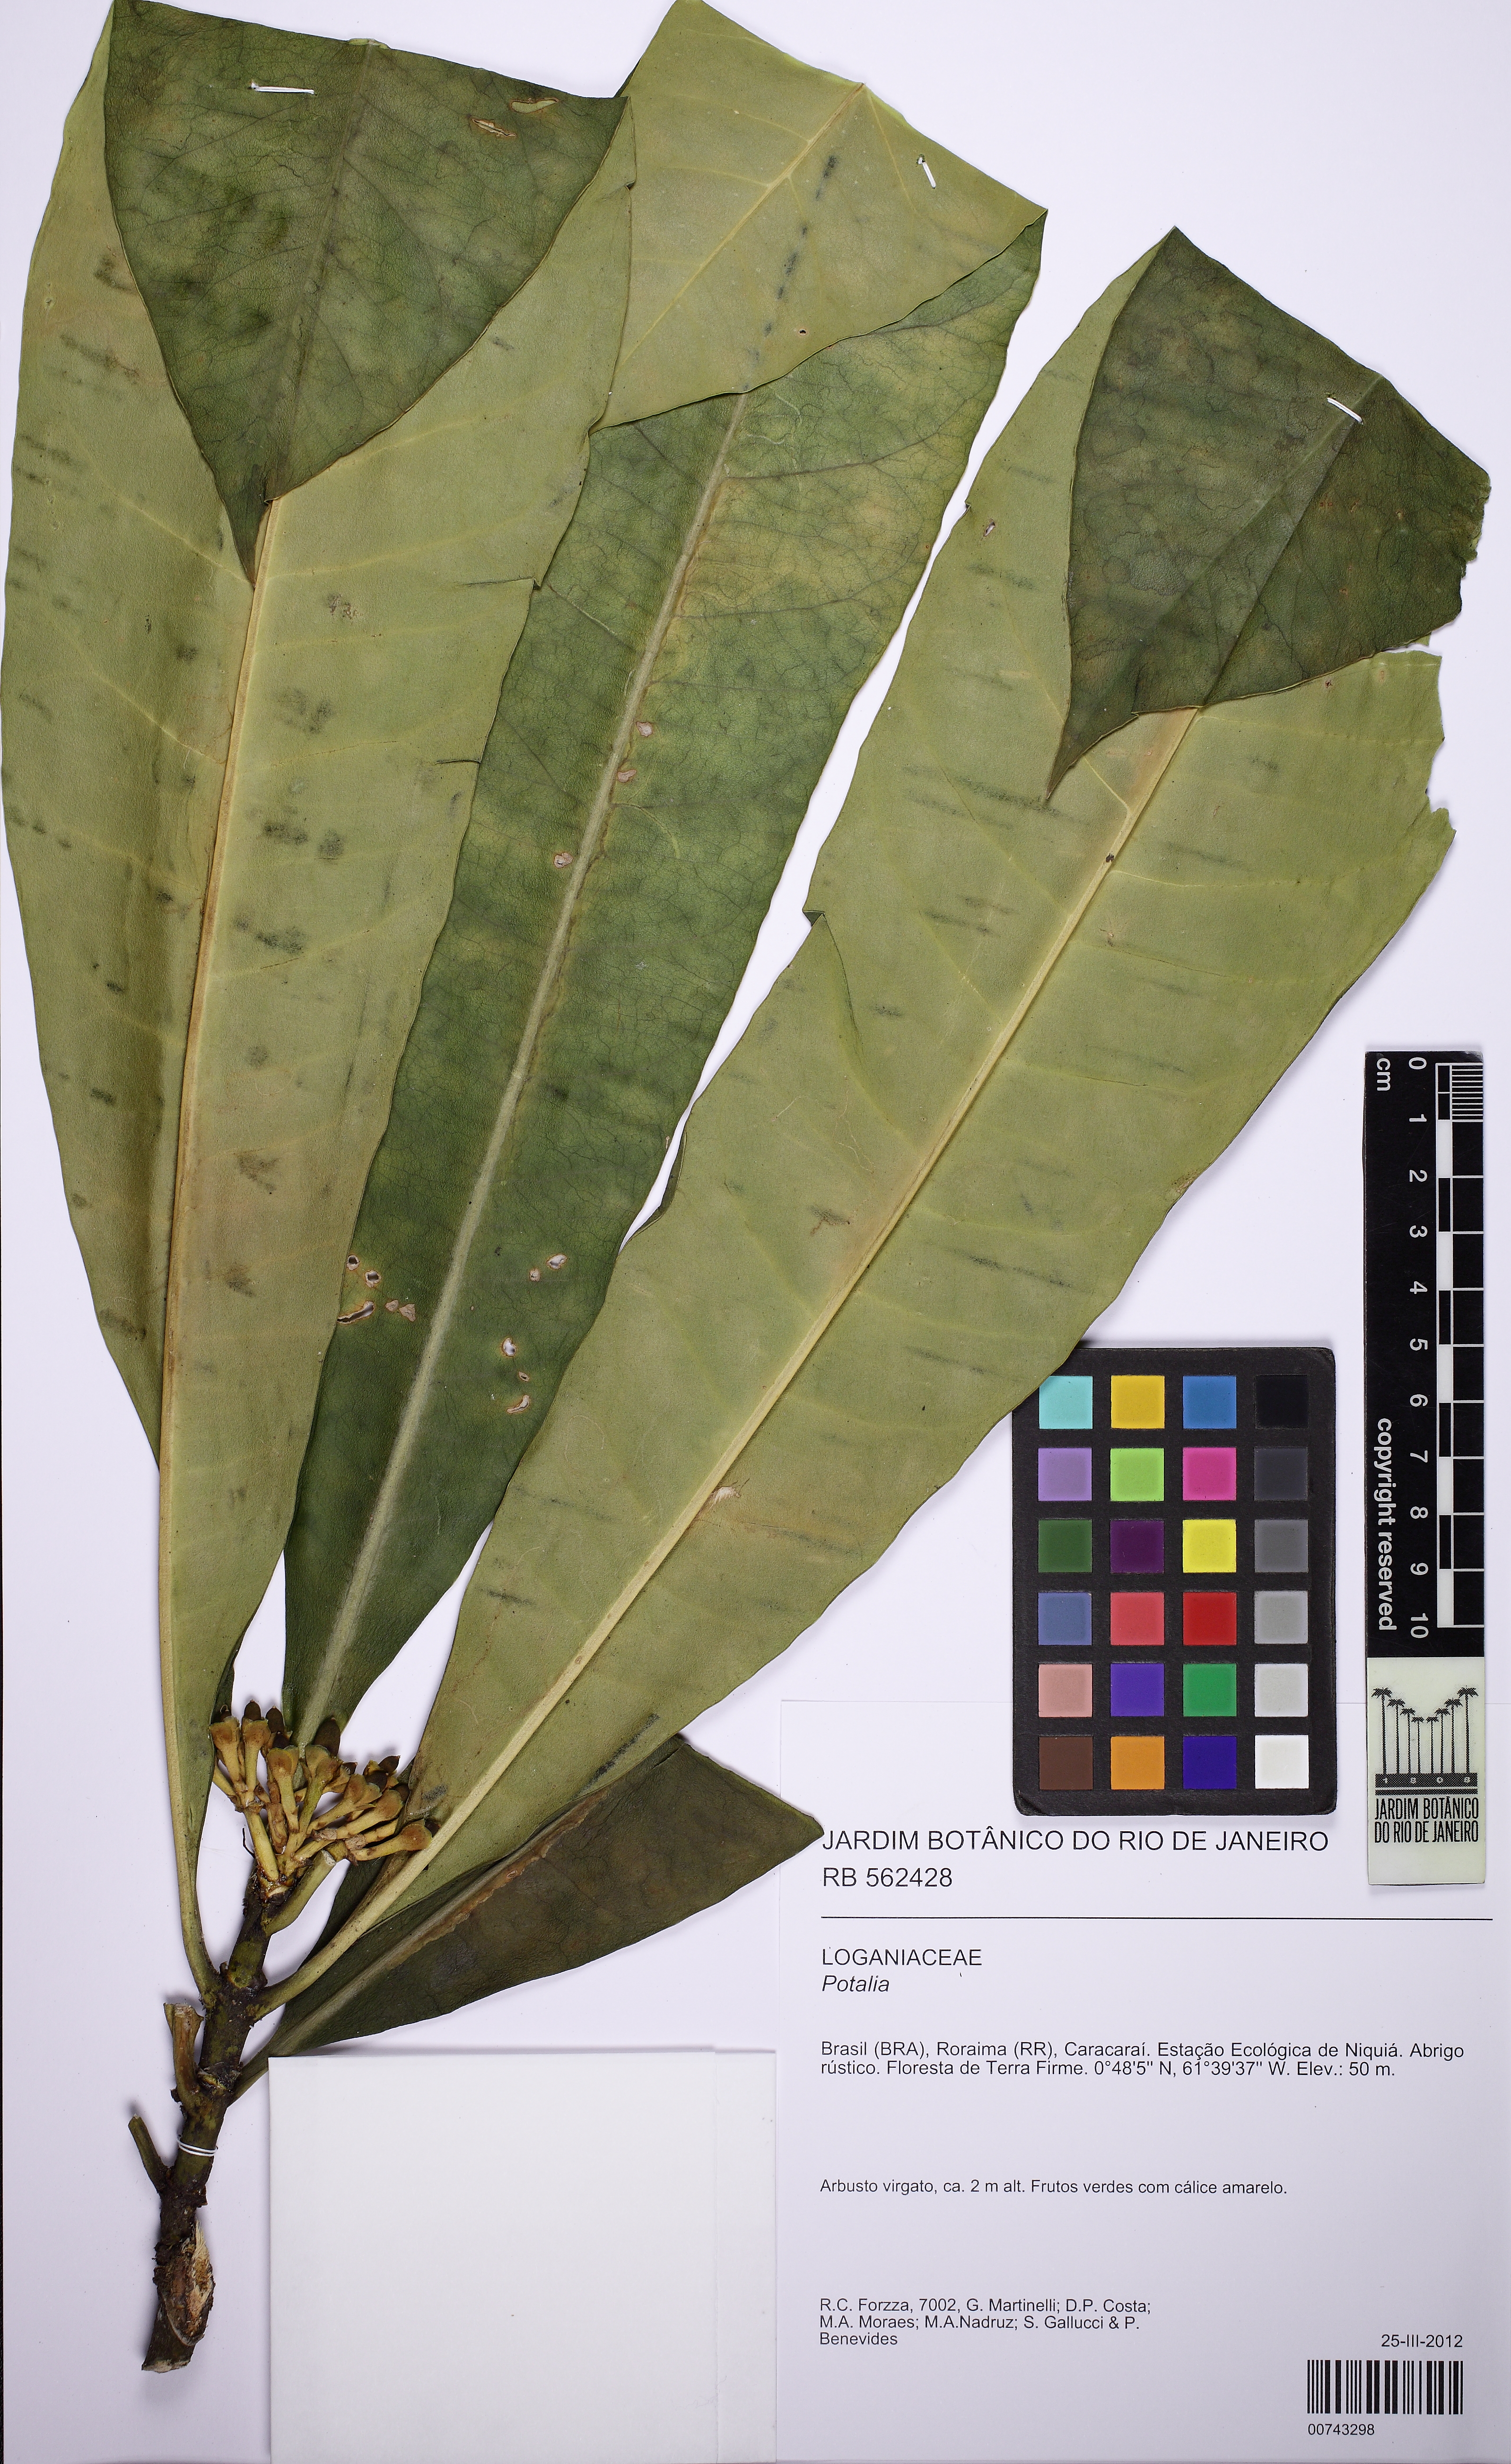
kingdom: Plantae
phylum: Tracheophyta
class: Magnoliopsida
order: Gentianales
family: Gentianaceae
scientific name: Gentianaceae
